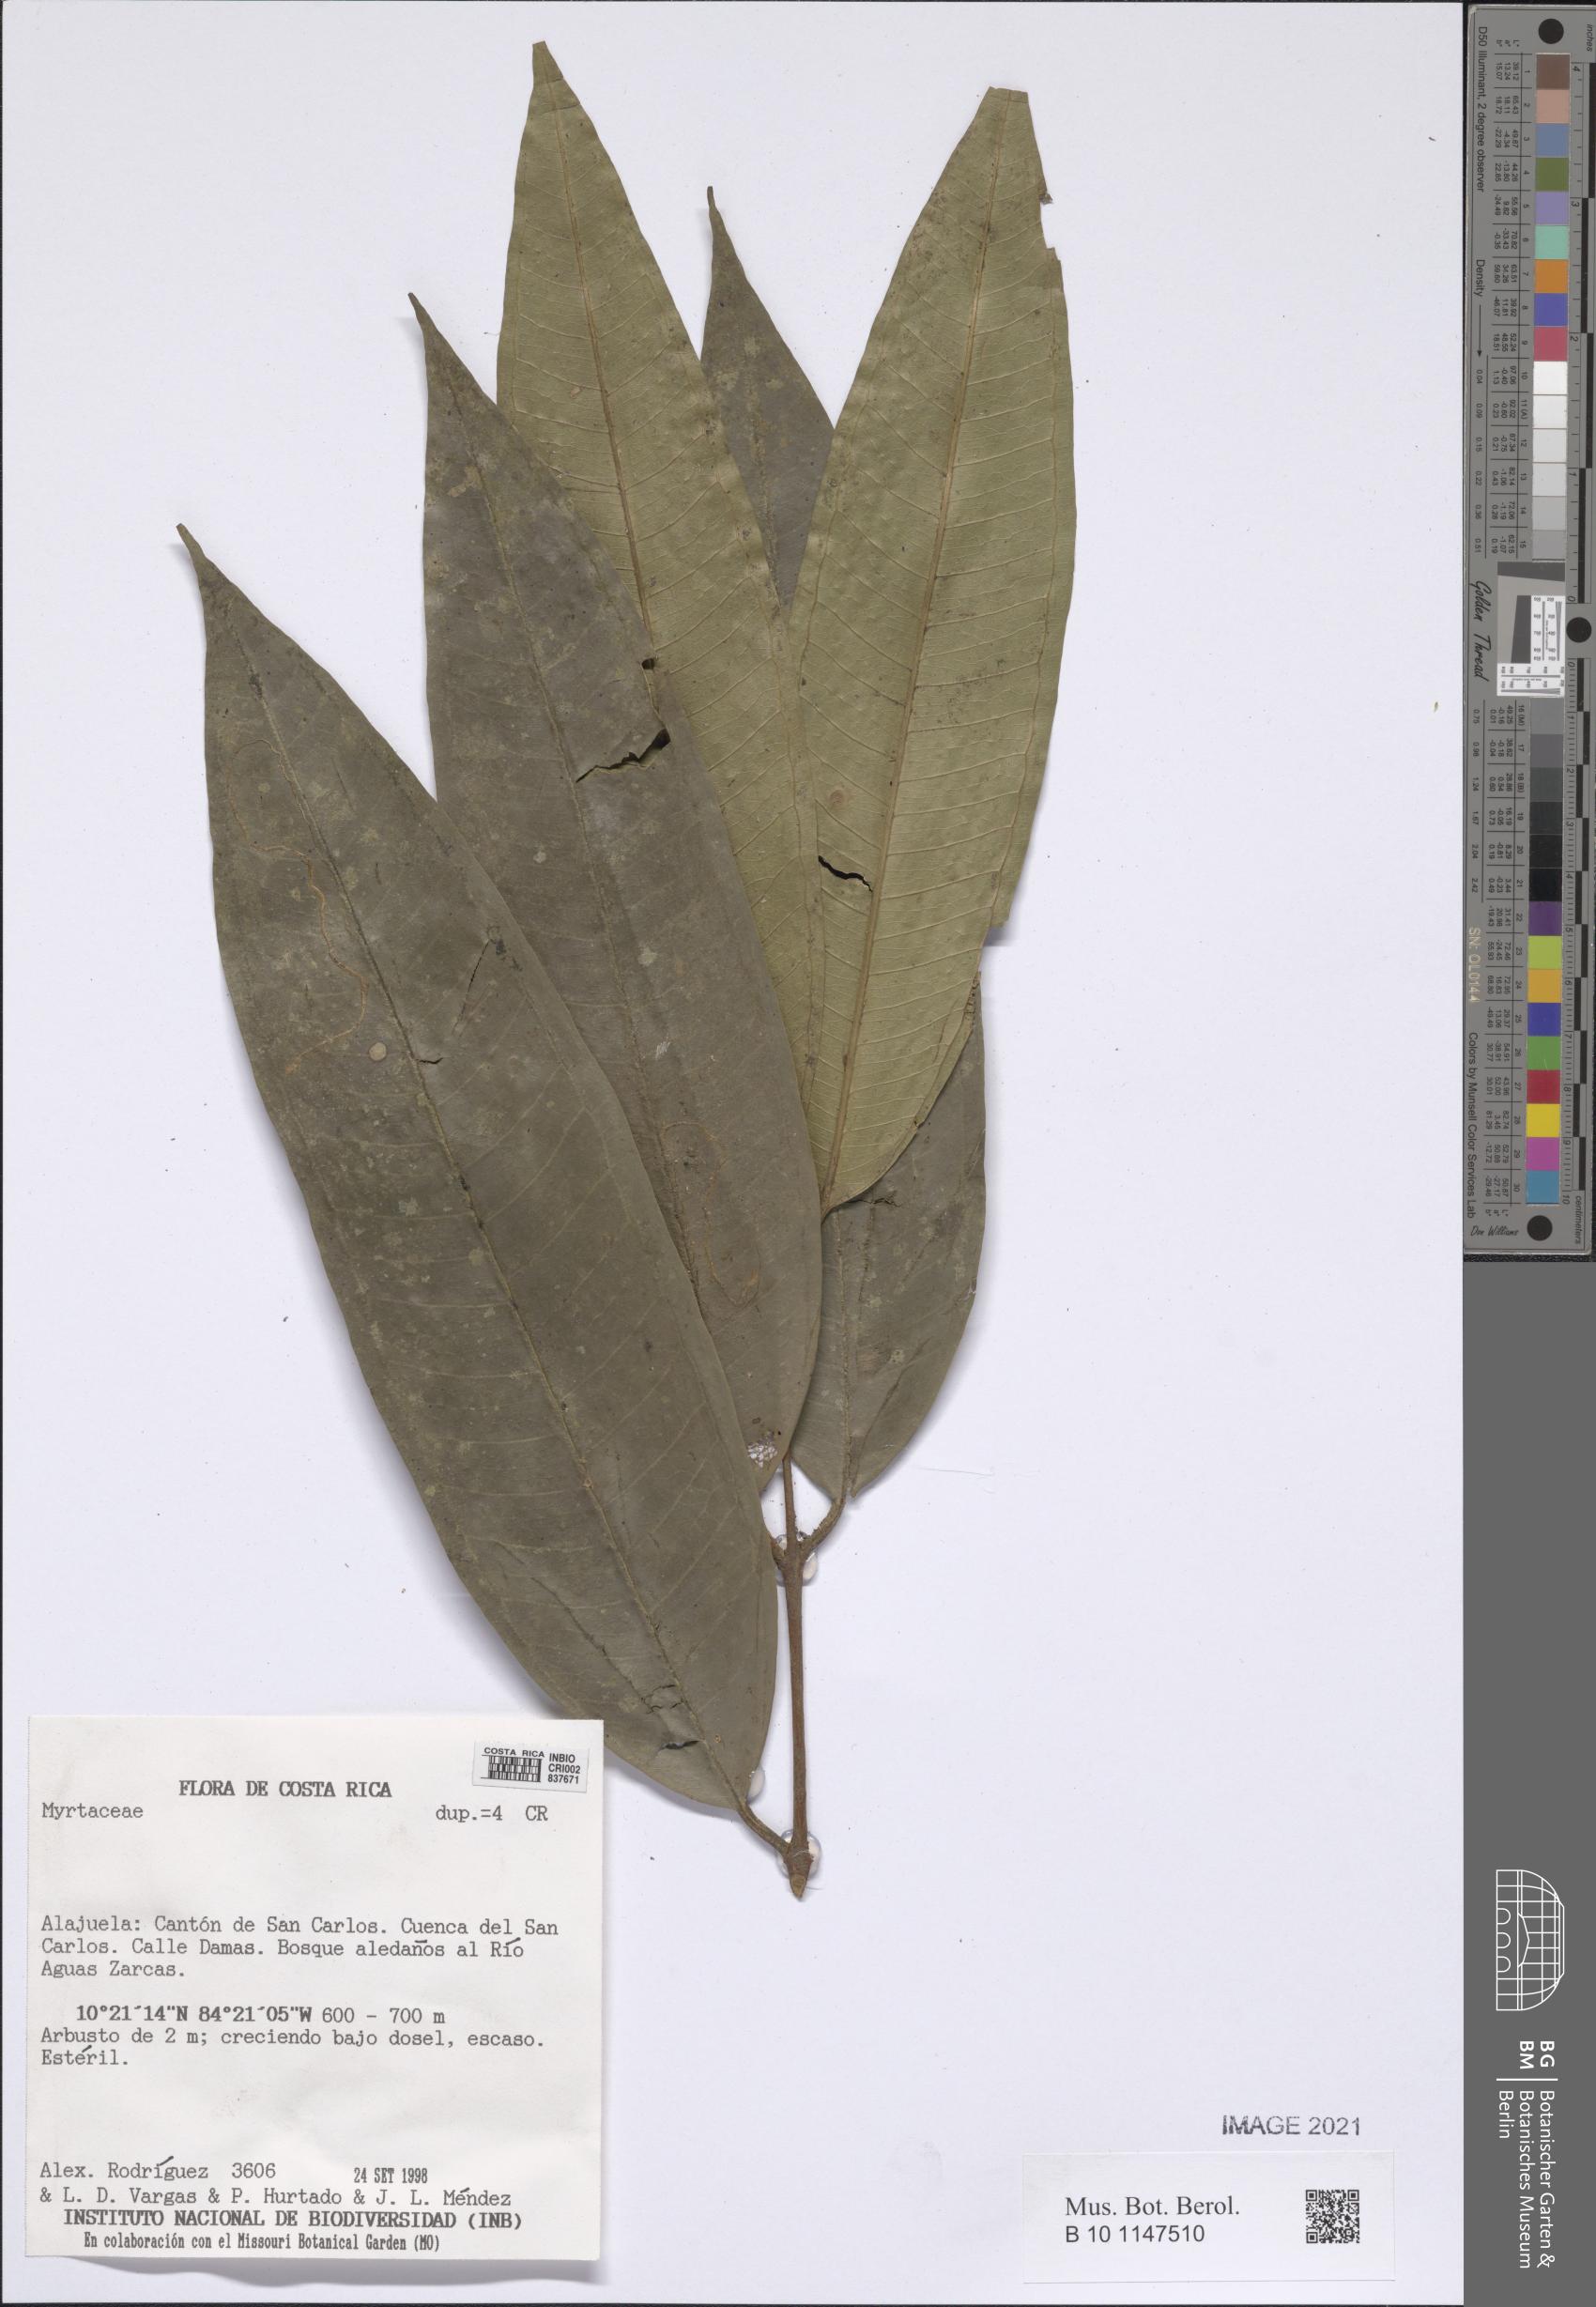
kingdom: Plantae
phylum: Tracheophyta
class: Magnoliopsida
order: Myrtales
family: Myrtaceae
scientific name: Myrtaceae
